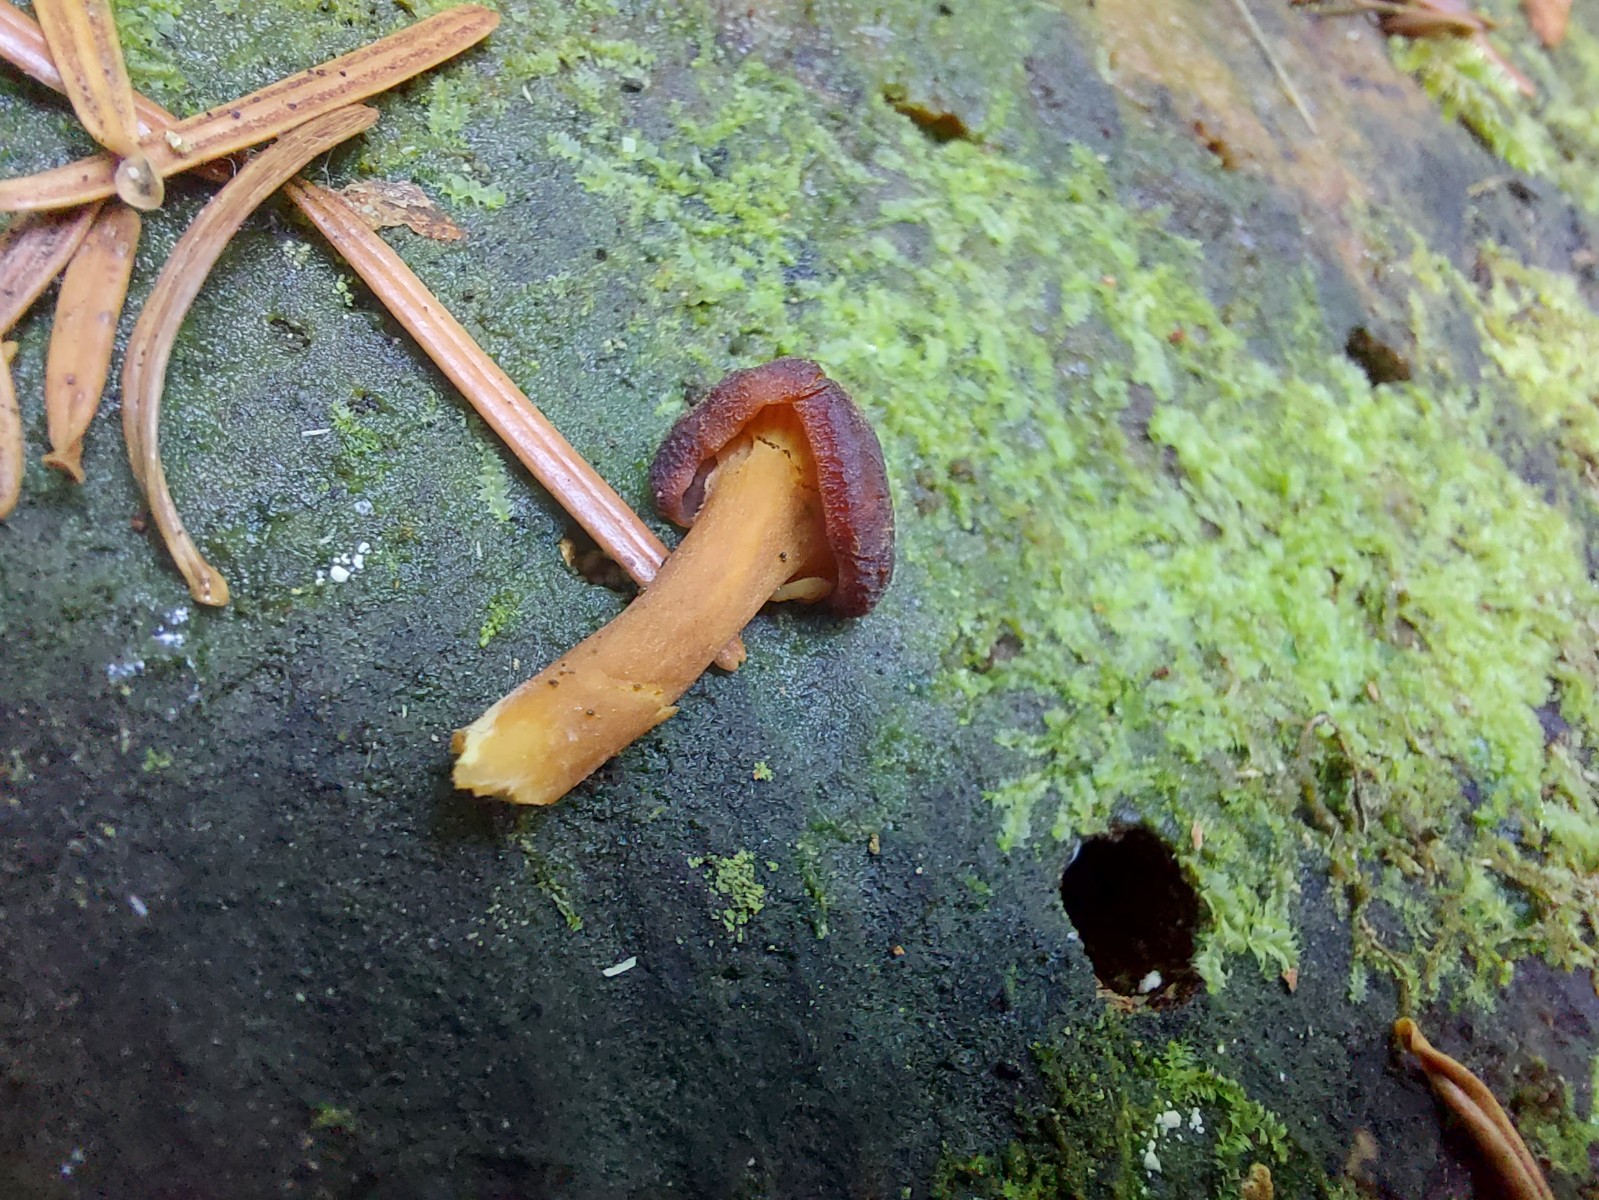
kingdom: Fungi
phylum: Basidiomycota
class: Agaricomycetes
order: Cantharellales
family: Hydnaceae
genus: Craterellus
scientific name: Craterellus tubaeformis
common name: tragt-kantarel
